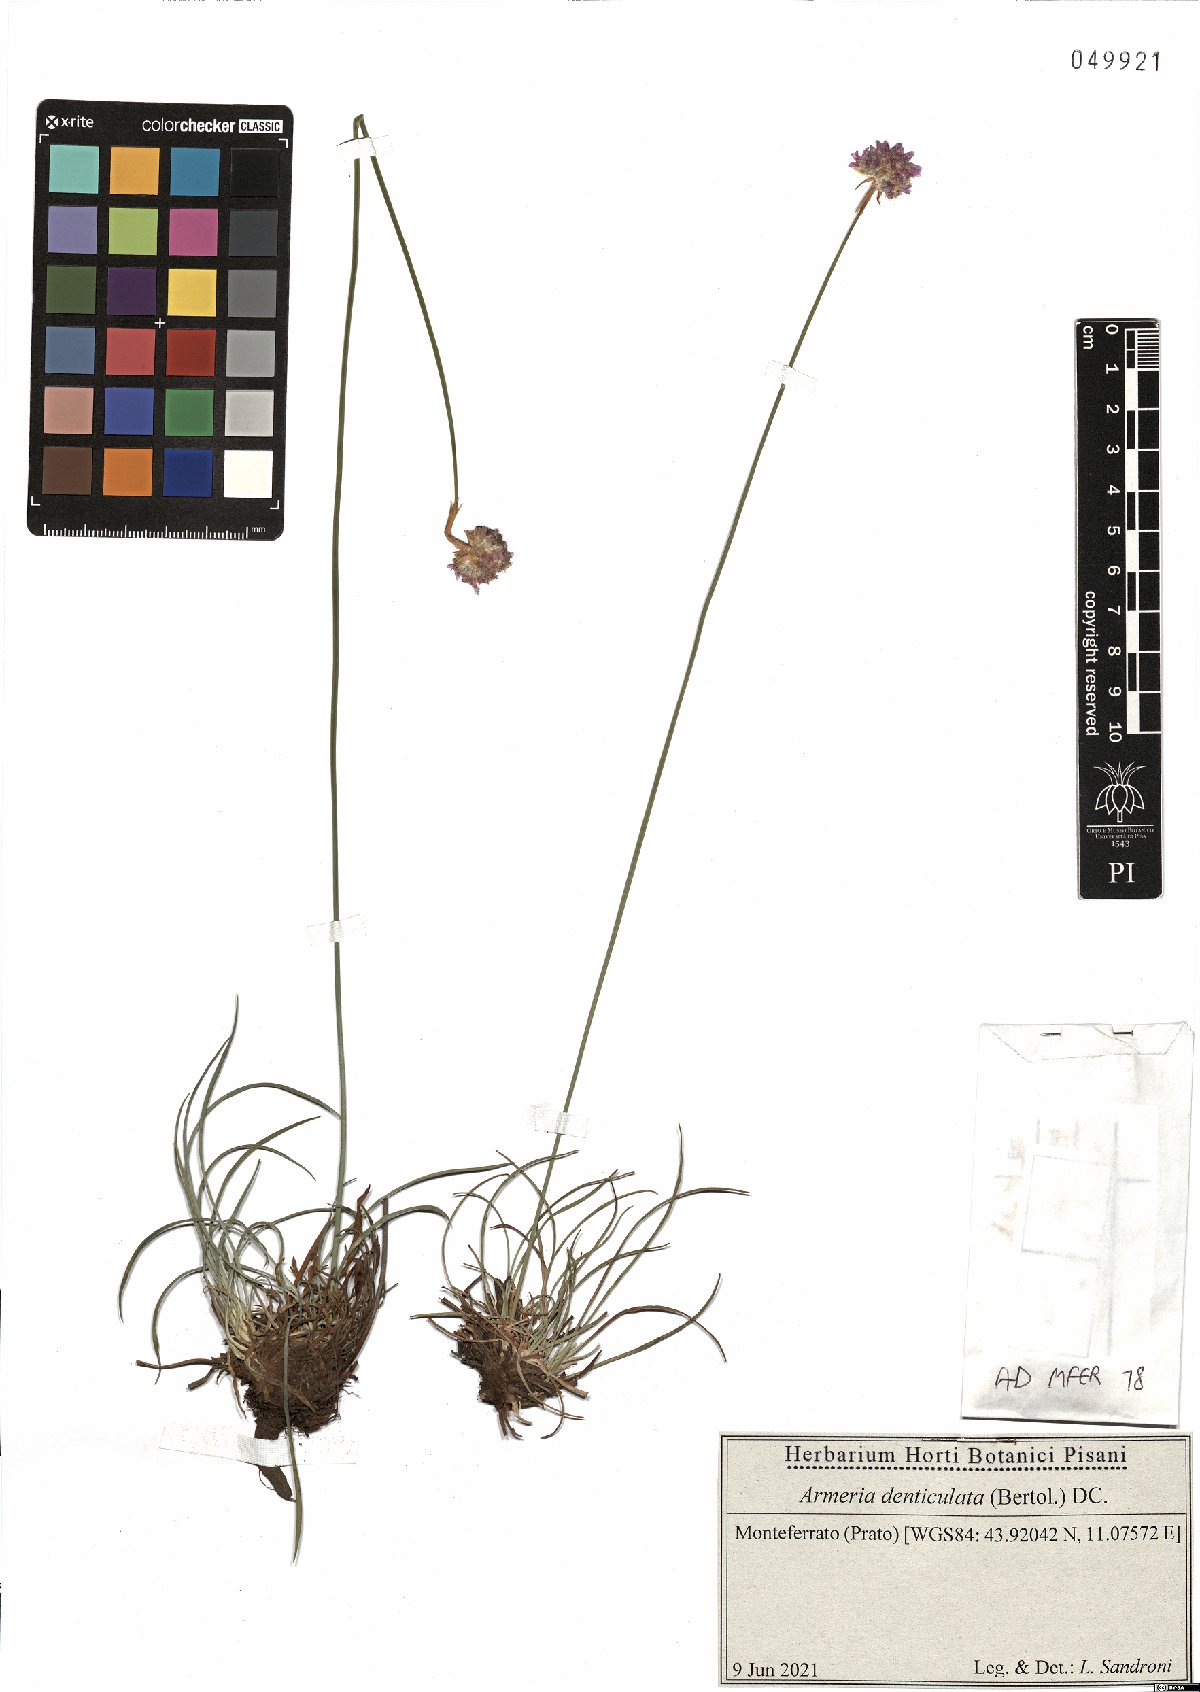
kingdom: Plantae
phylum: Tracheophyta
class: Magnoliopsida
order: Caryophyllales
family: Plumbaginaceae
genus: Armeria
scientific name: Armeria denticulata
